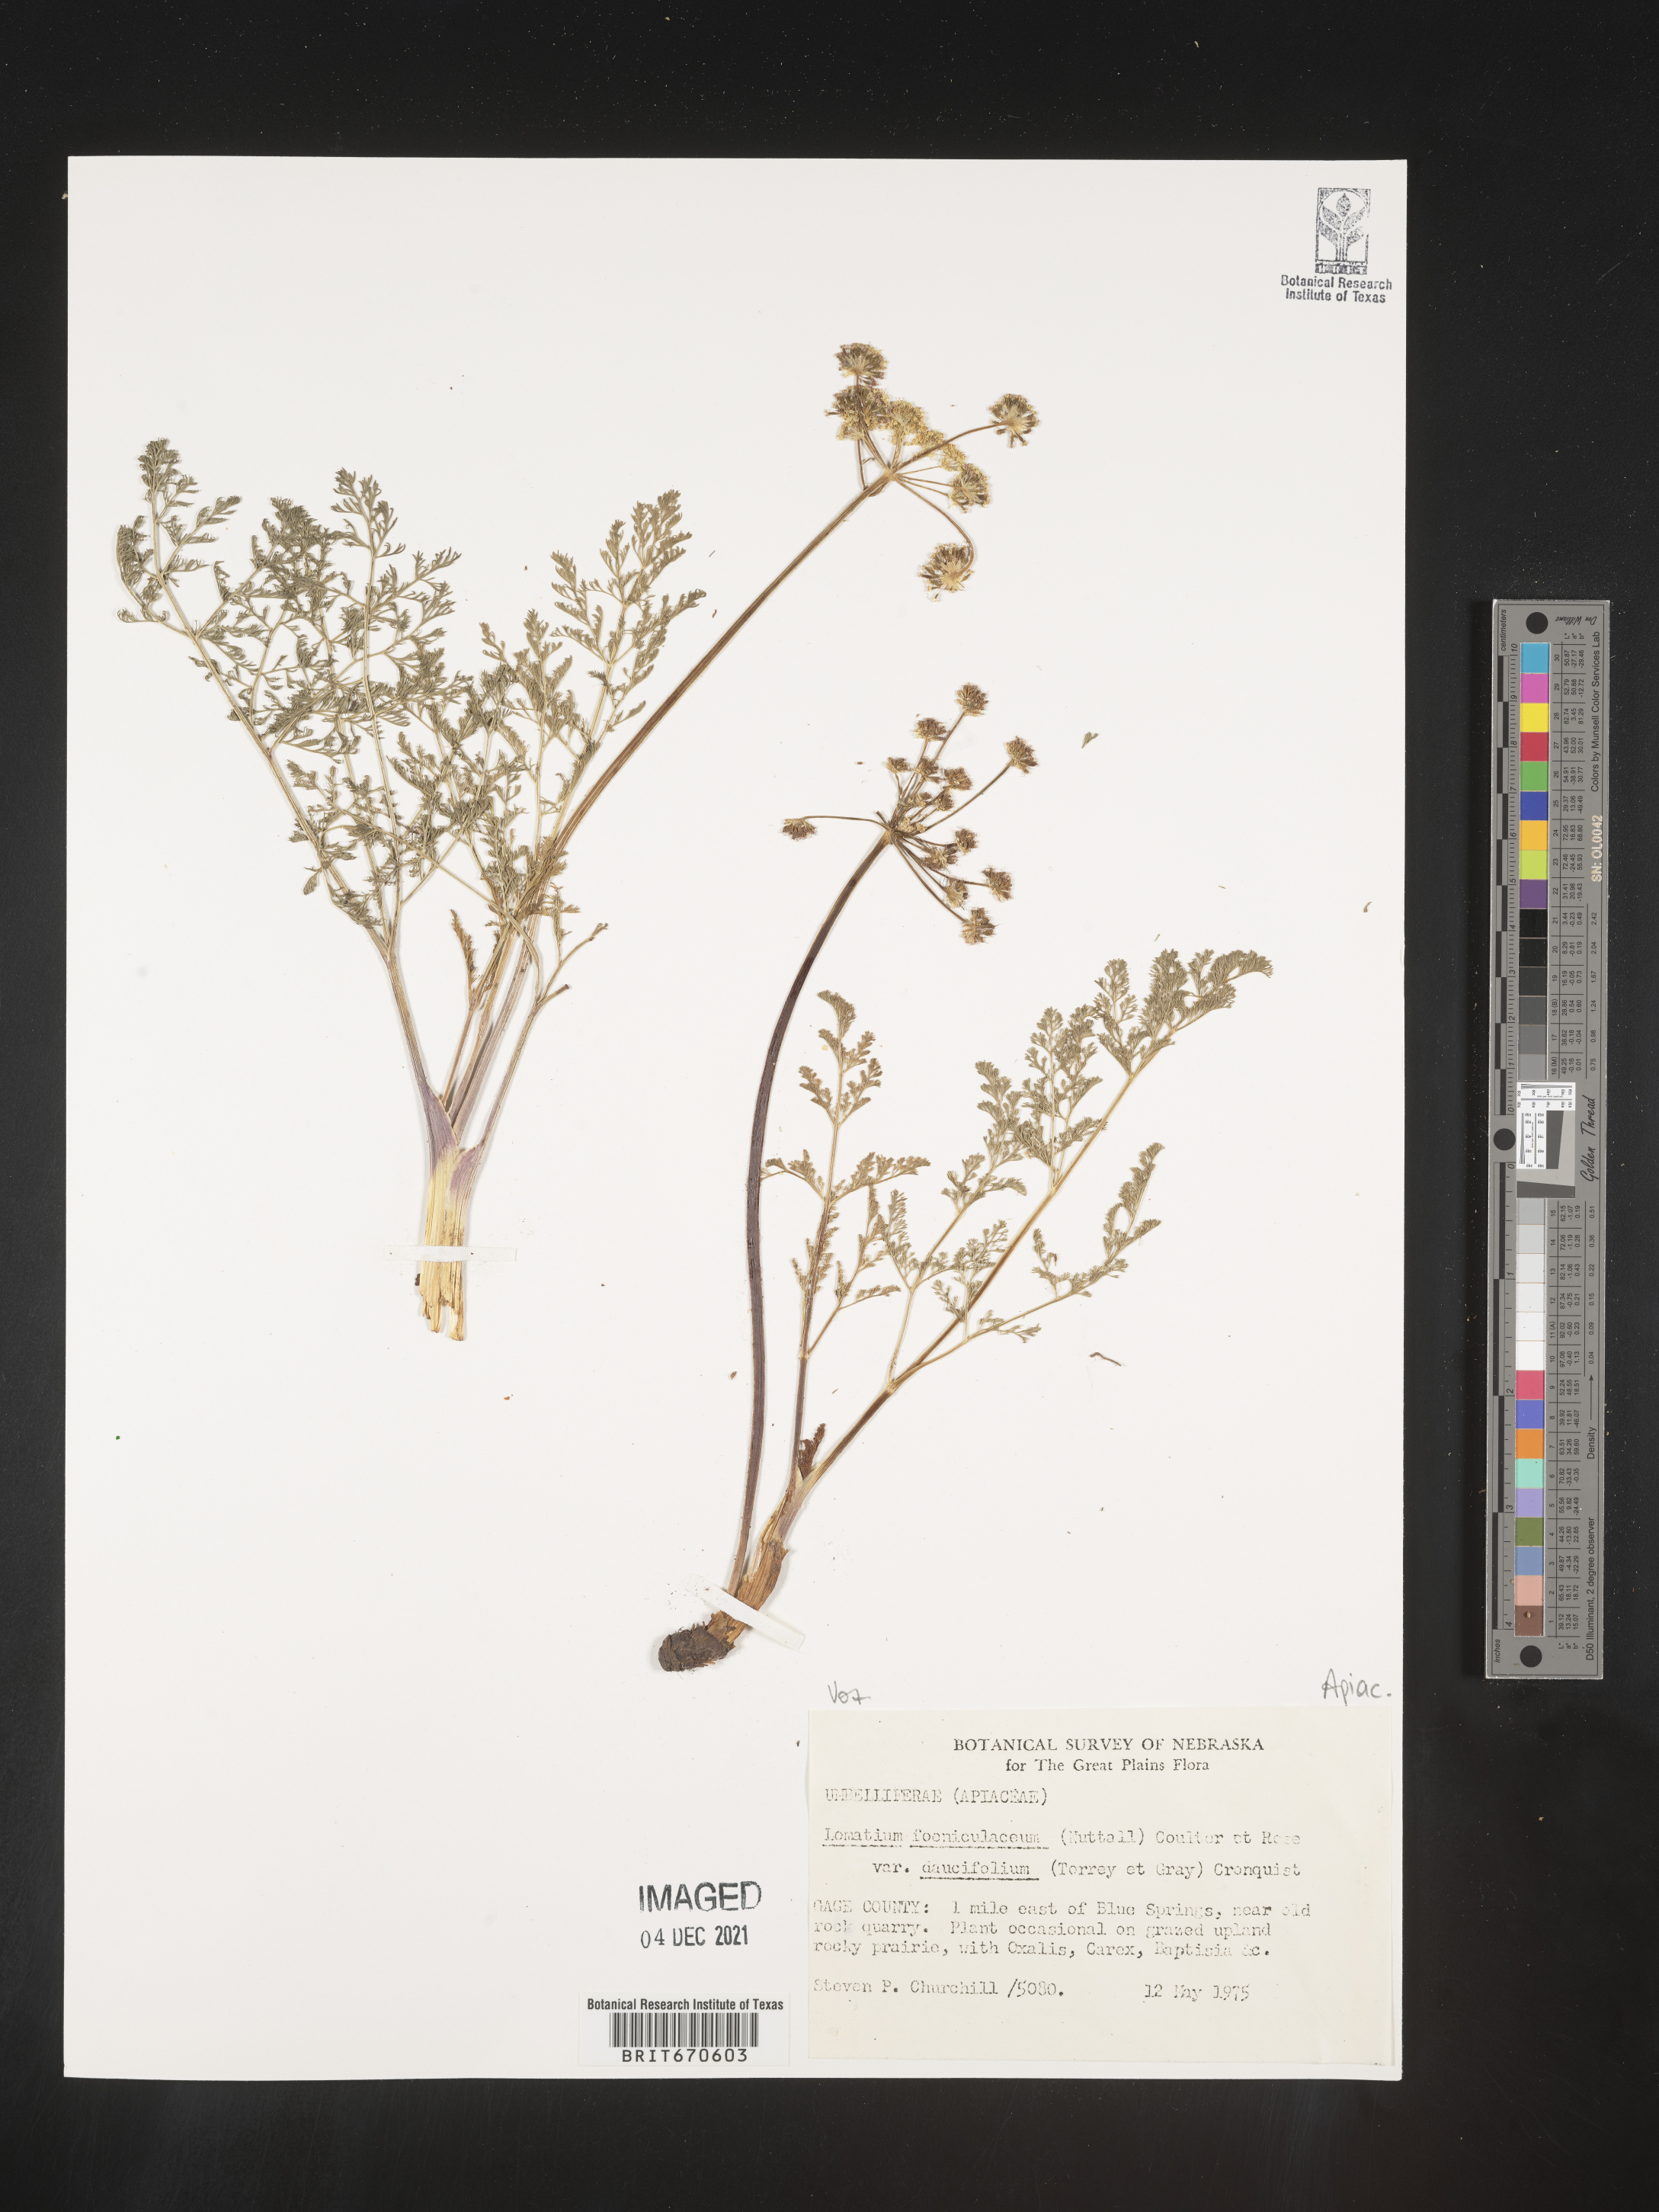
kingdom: Plantae
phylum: Tracheophyta
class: Magnoliopsida
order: Apiales
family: Apiaceae
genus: Lomatium
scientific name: Lomatium foeniculaceum
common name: Desert-parsley
